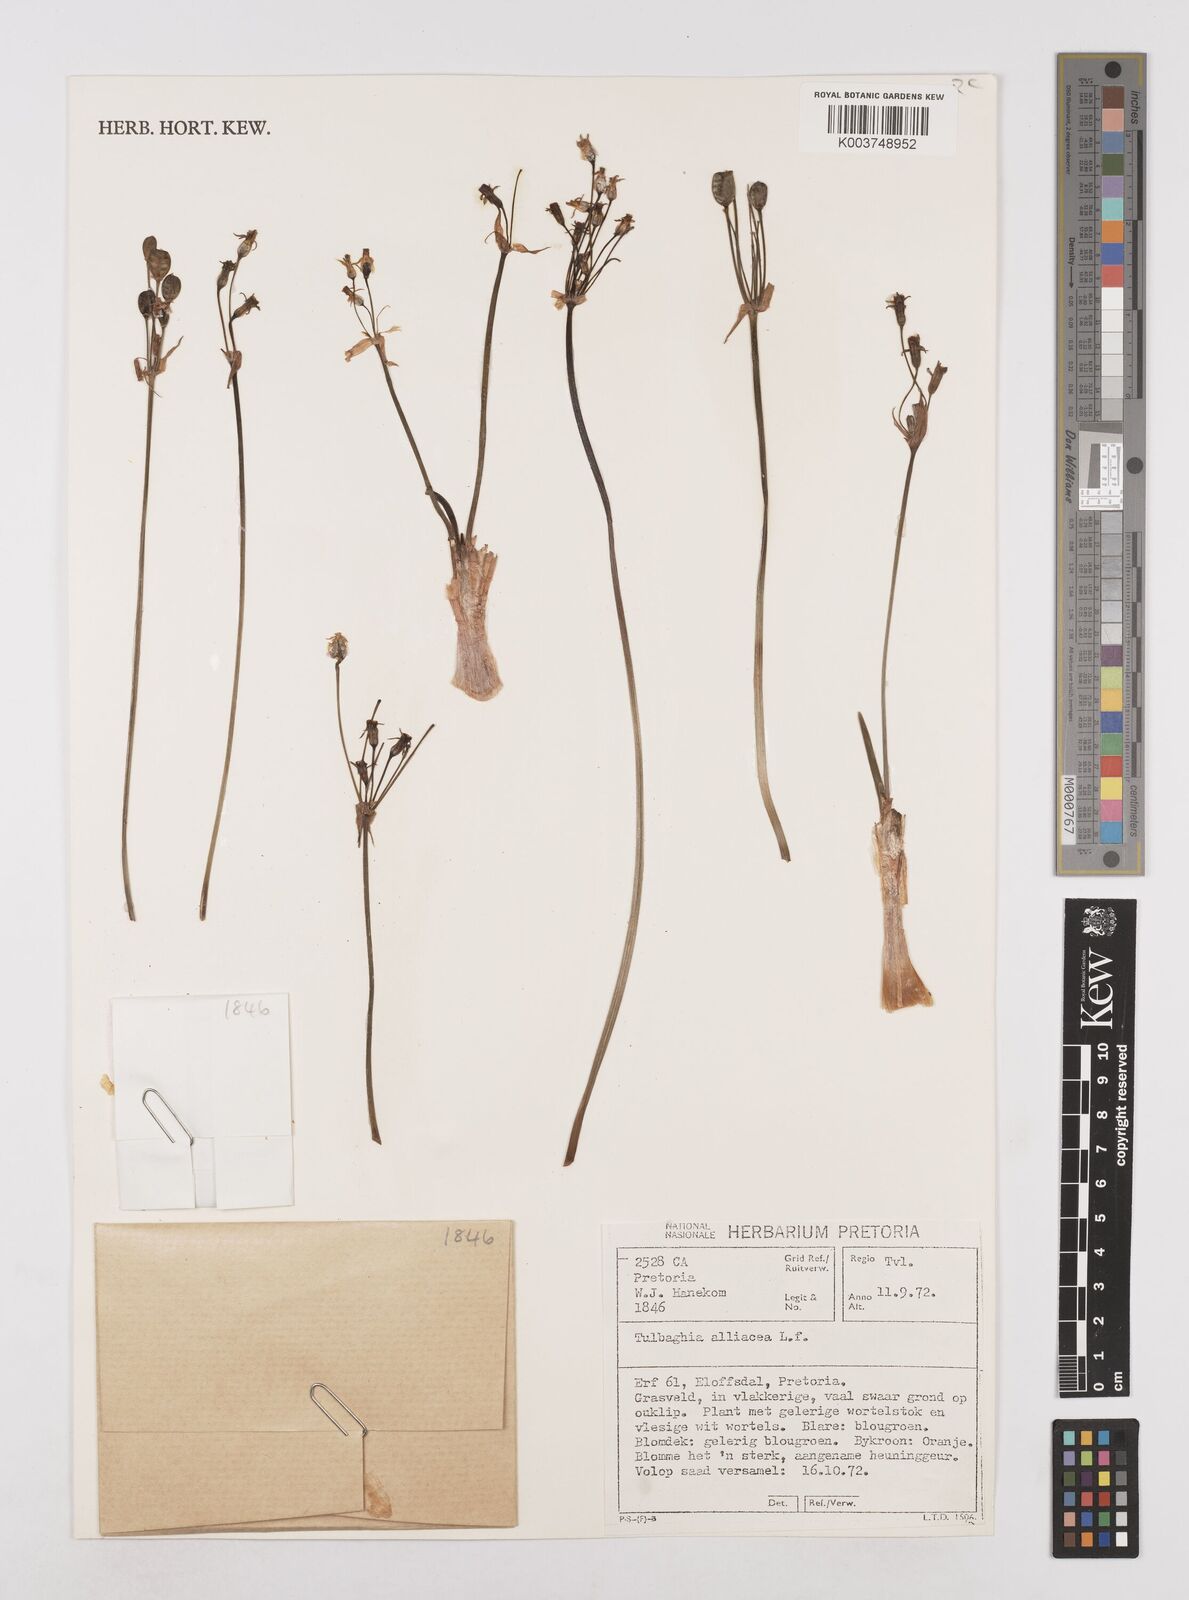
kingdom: Plantae
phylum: Tracheophyta
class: Liliopsida
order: Asparagales
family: Amaryllidaceae
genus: Tulbaghia
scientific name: Tulbaghia alliacea
